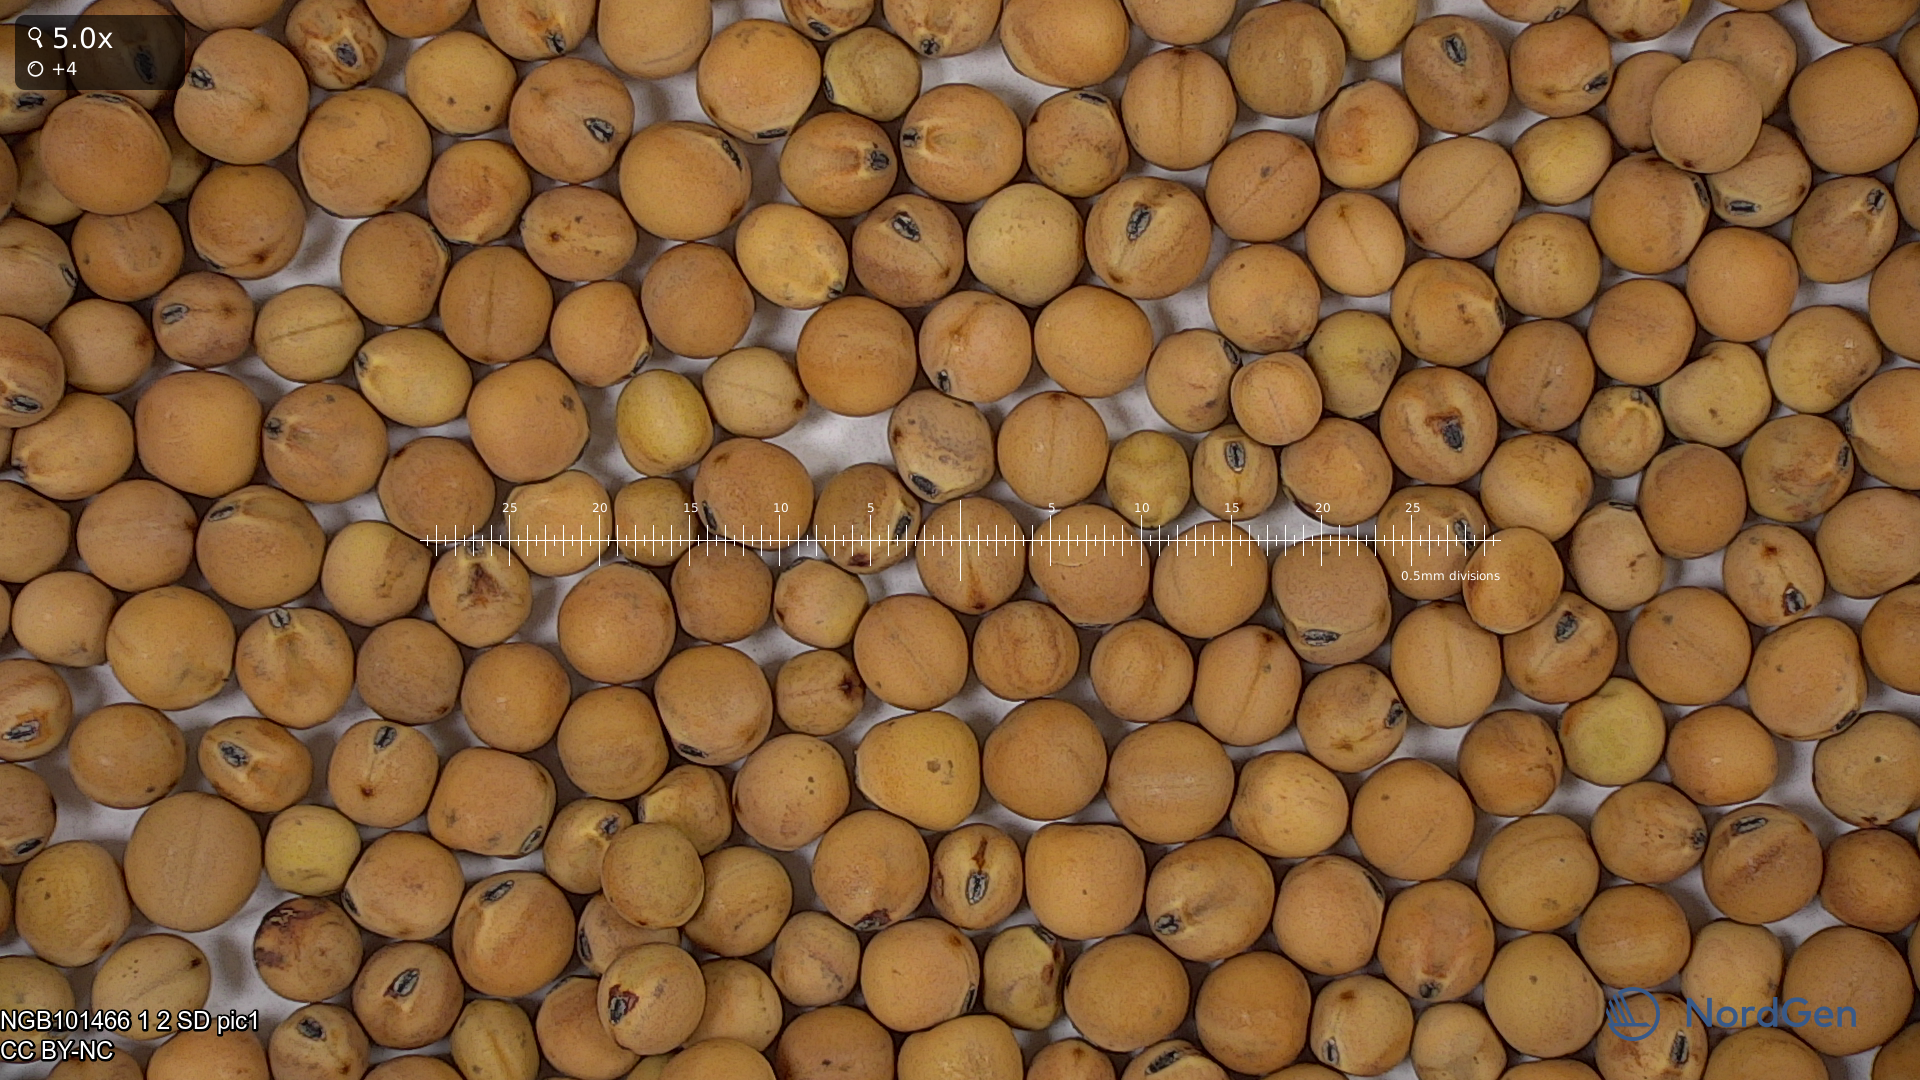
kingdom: Plantae
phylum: Tracheophyta
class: Magnoliopsida
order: Fabales
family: Fabaceae
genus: Lathyrus
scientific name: Lathyrus oleraceus
